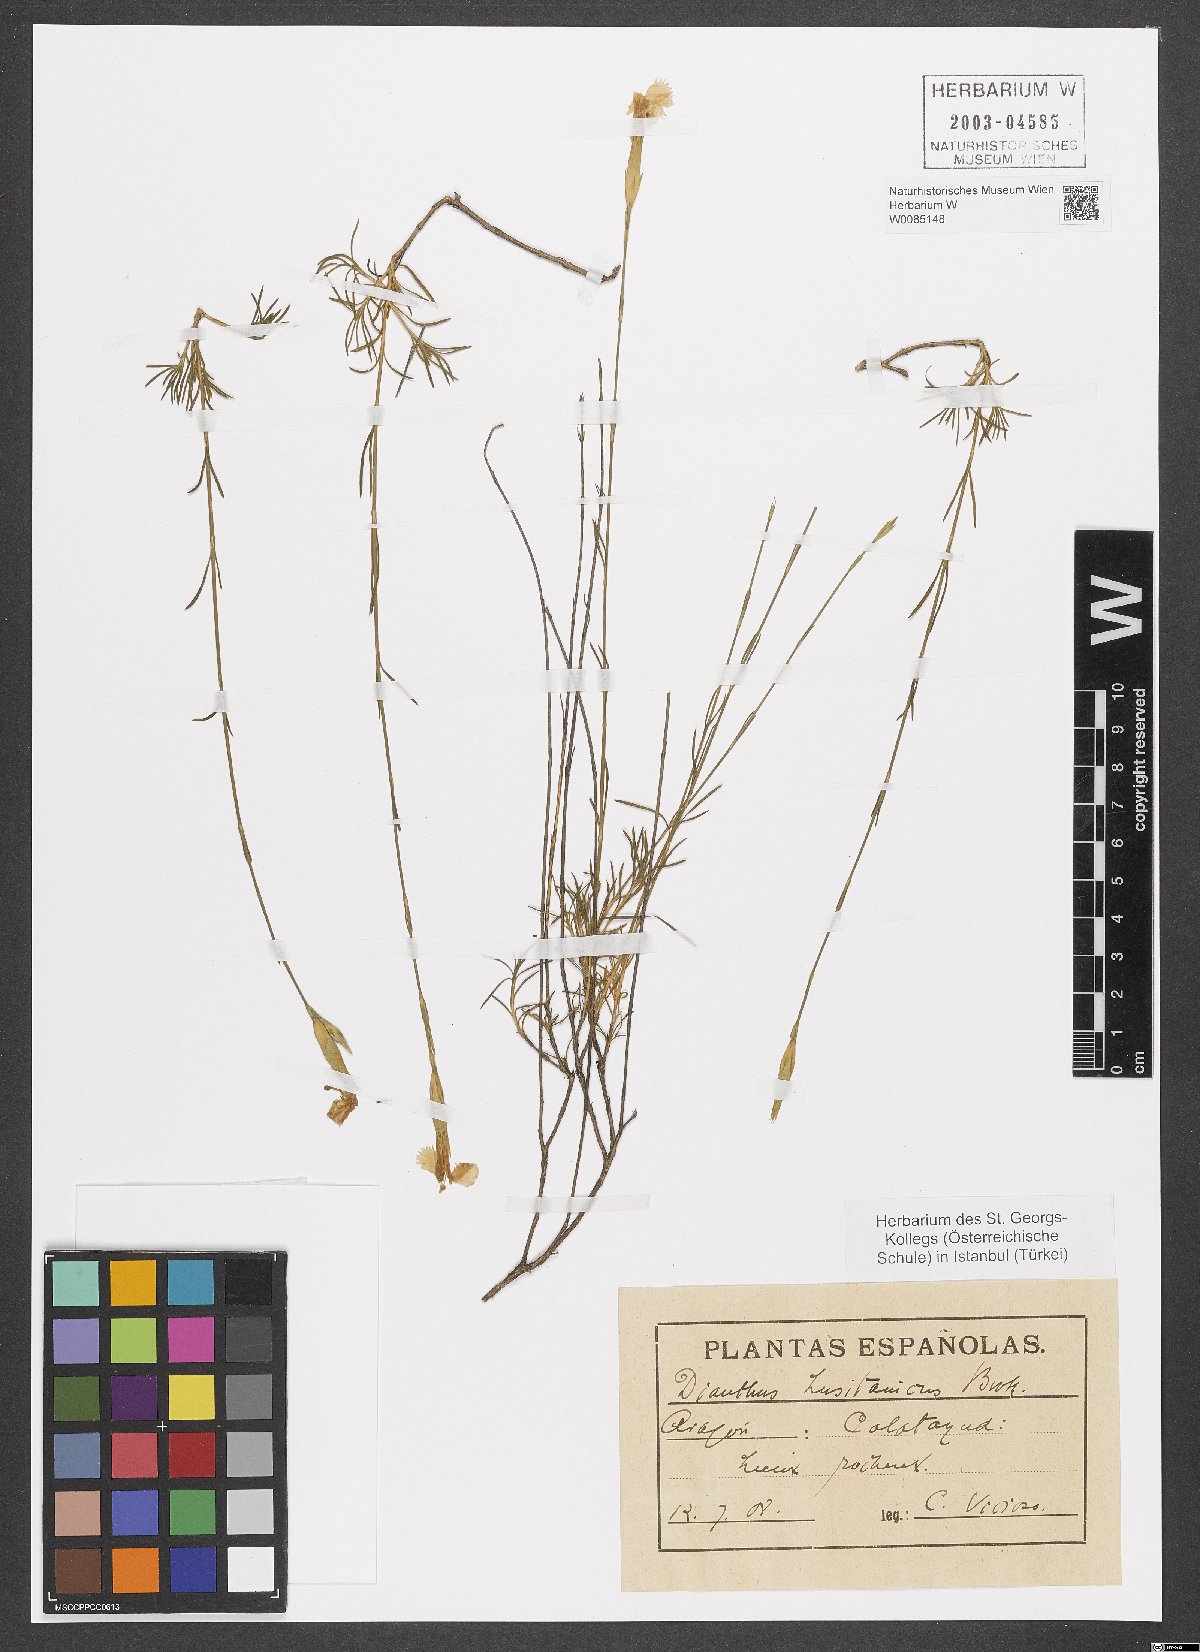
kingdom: Plantae
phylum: Tracheophyta
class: Magnoliopsida
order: Caryophyllales
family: Caryophyllaceae
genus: Dianthus
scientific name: Dianthus lusitanus
